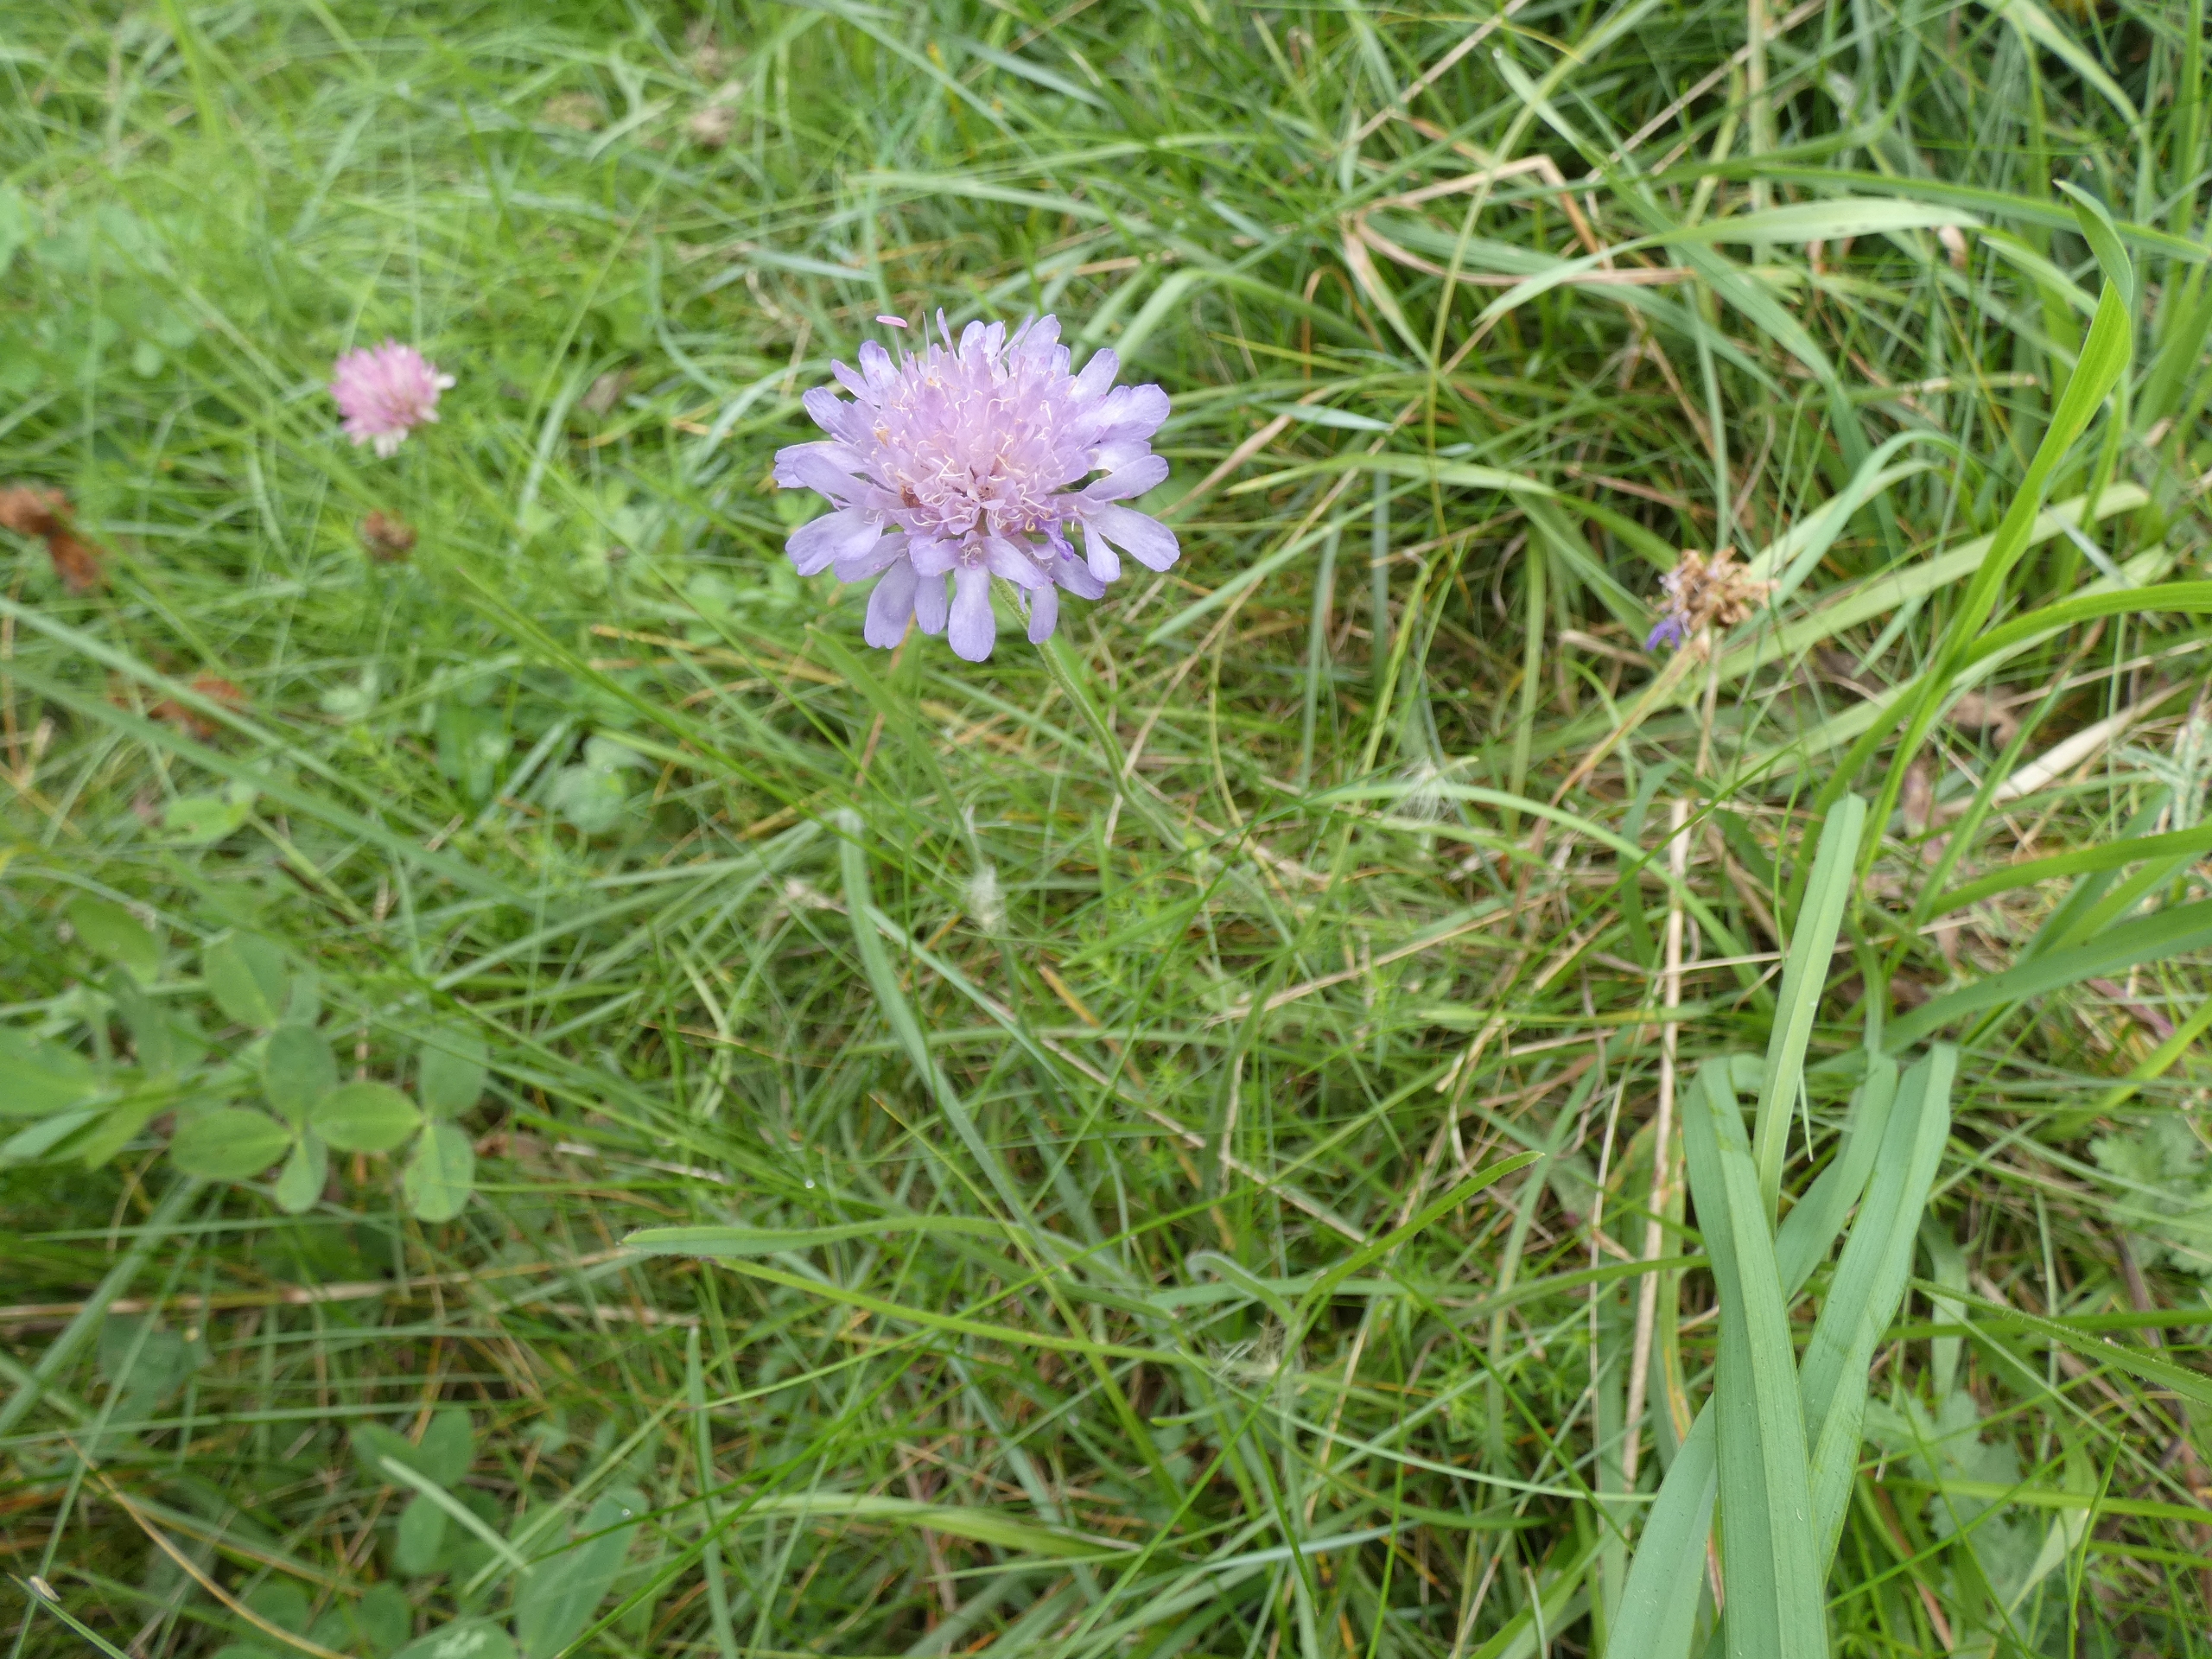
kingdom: Plantae
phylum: Tracheophyta
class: Magnoliopsida
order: Dipsacales
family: Caprifoliaceae
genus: Knautia
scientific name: Knautia arvensis
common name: Blåhat
